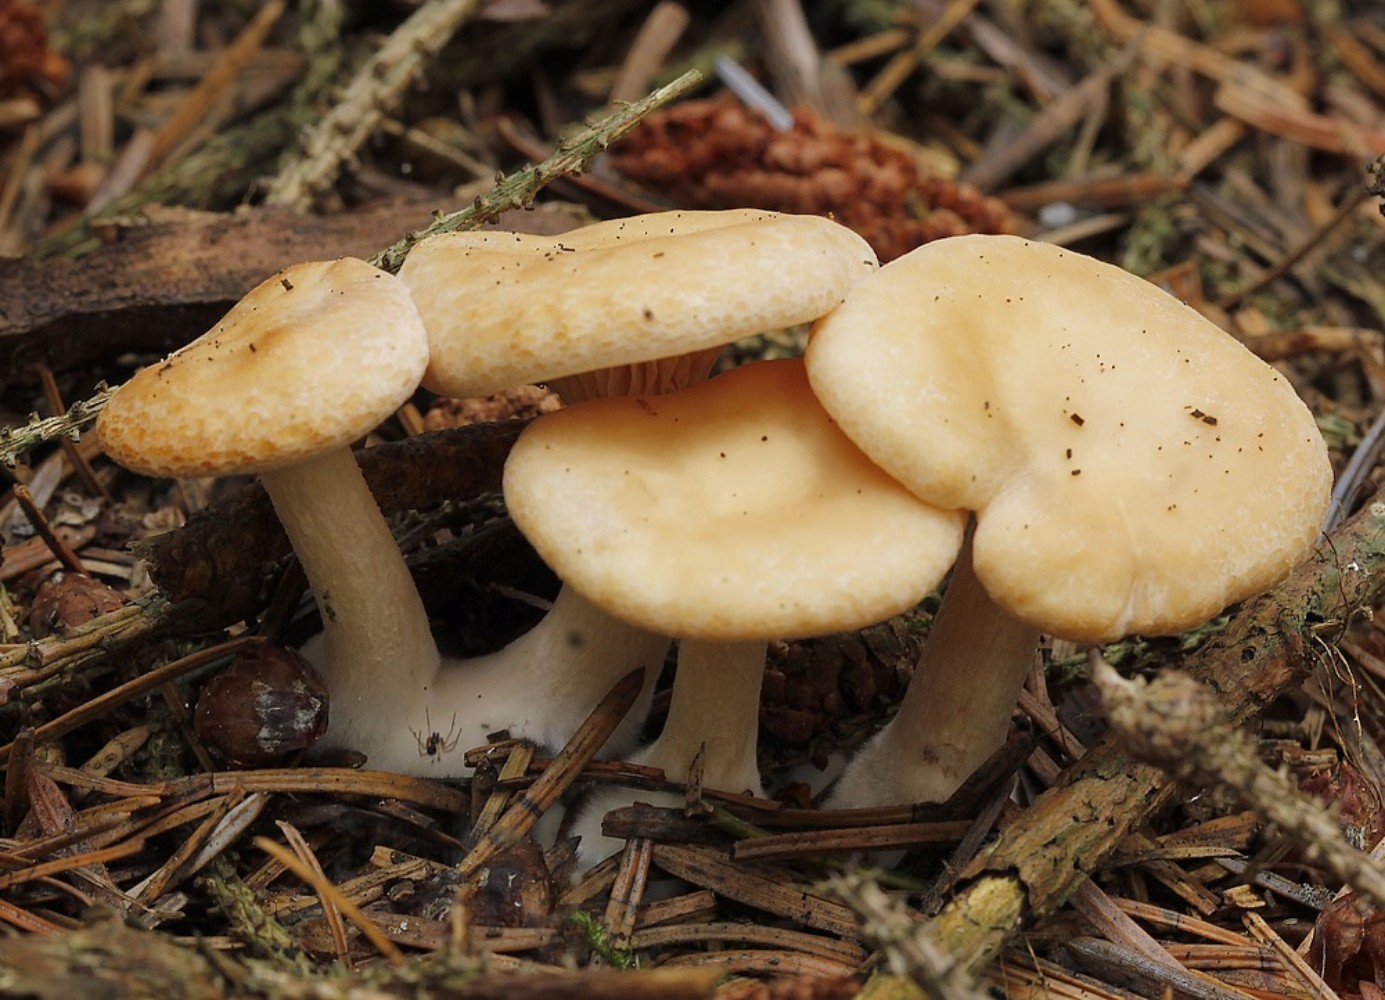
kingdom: Fungi
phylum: Basidiomycota
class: Agaricomycetes
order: Agaricales
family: Tricholomataceae
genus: Paralepista
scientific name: Paralepista gilva
